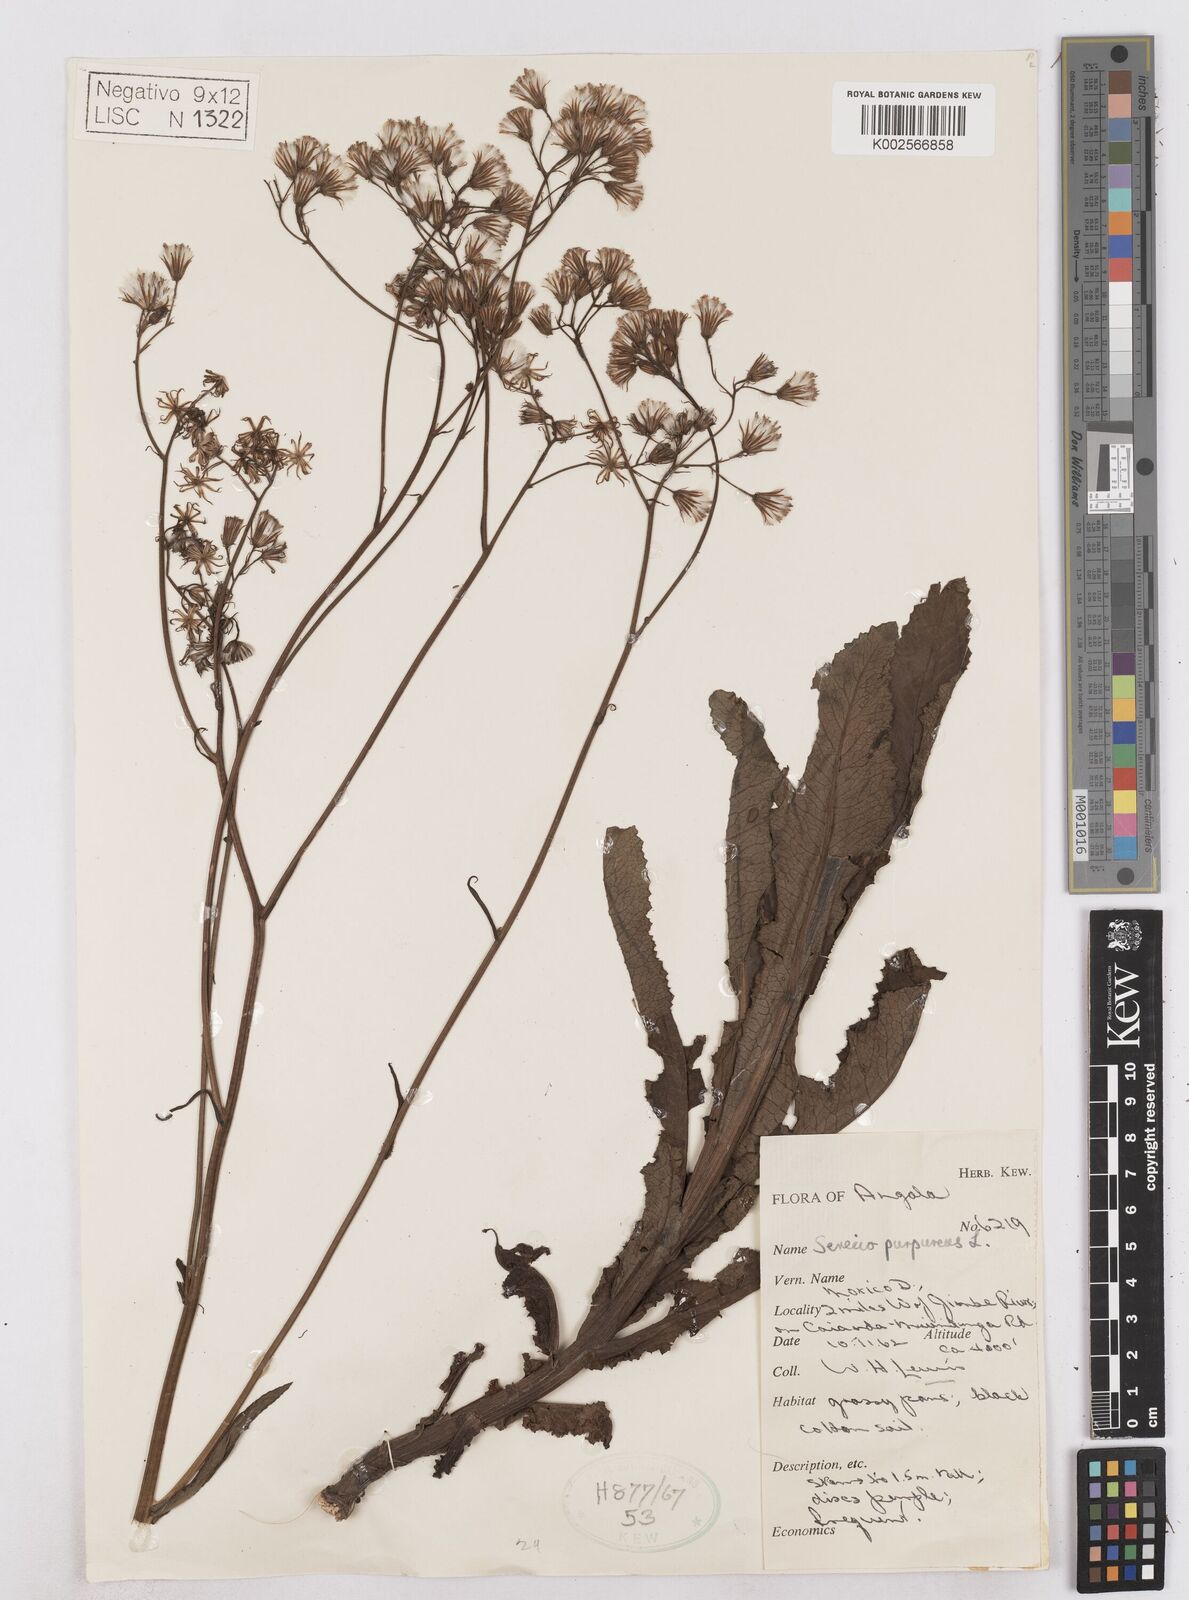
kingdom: Plantae
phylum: Tracheophyta
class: Magnoliopsida
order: Asterales
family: Asteraceae
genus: Senecio
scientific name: Senecio purpureus
